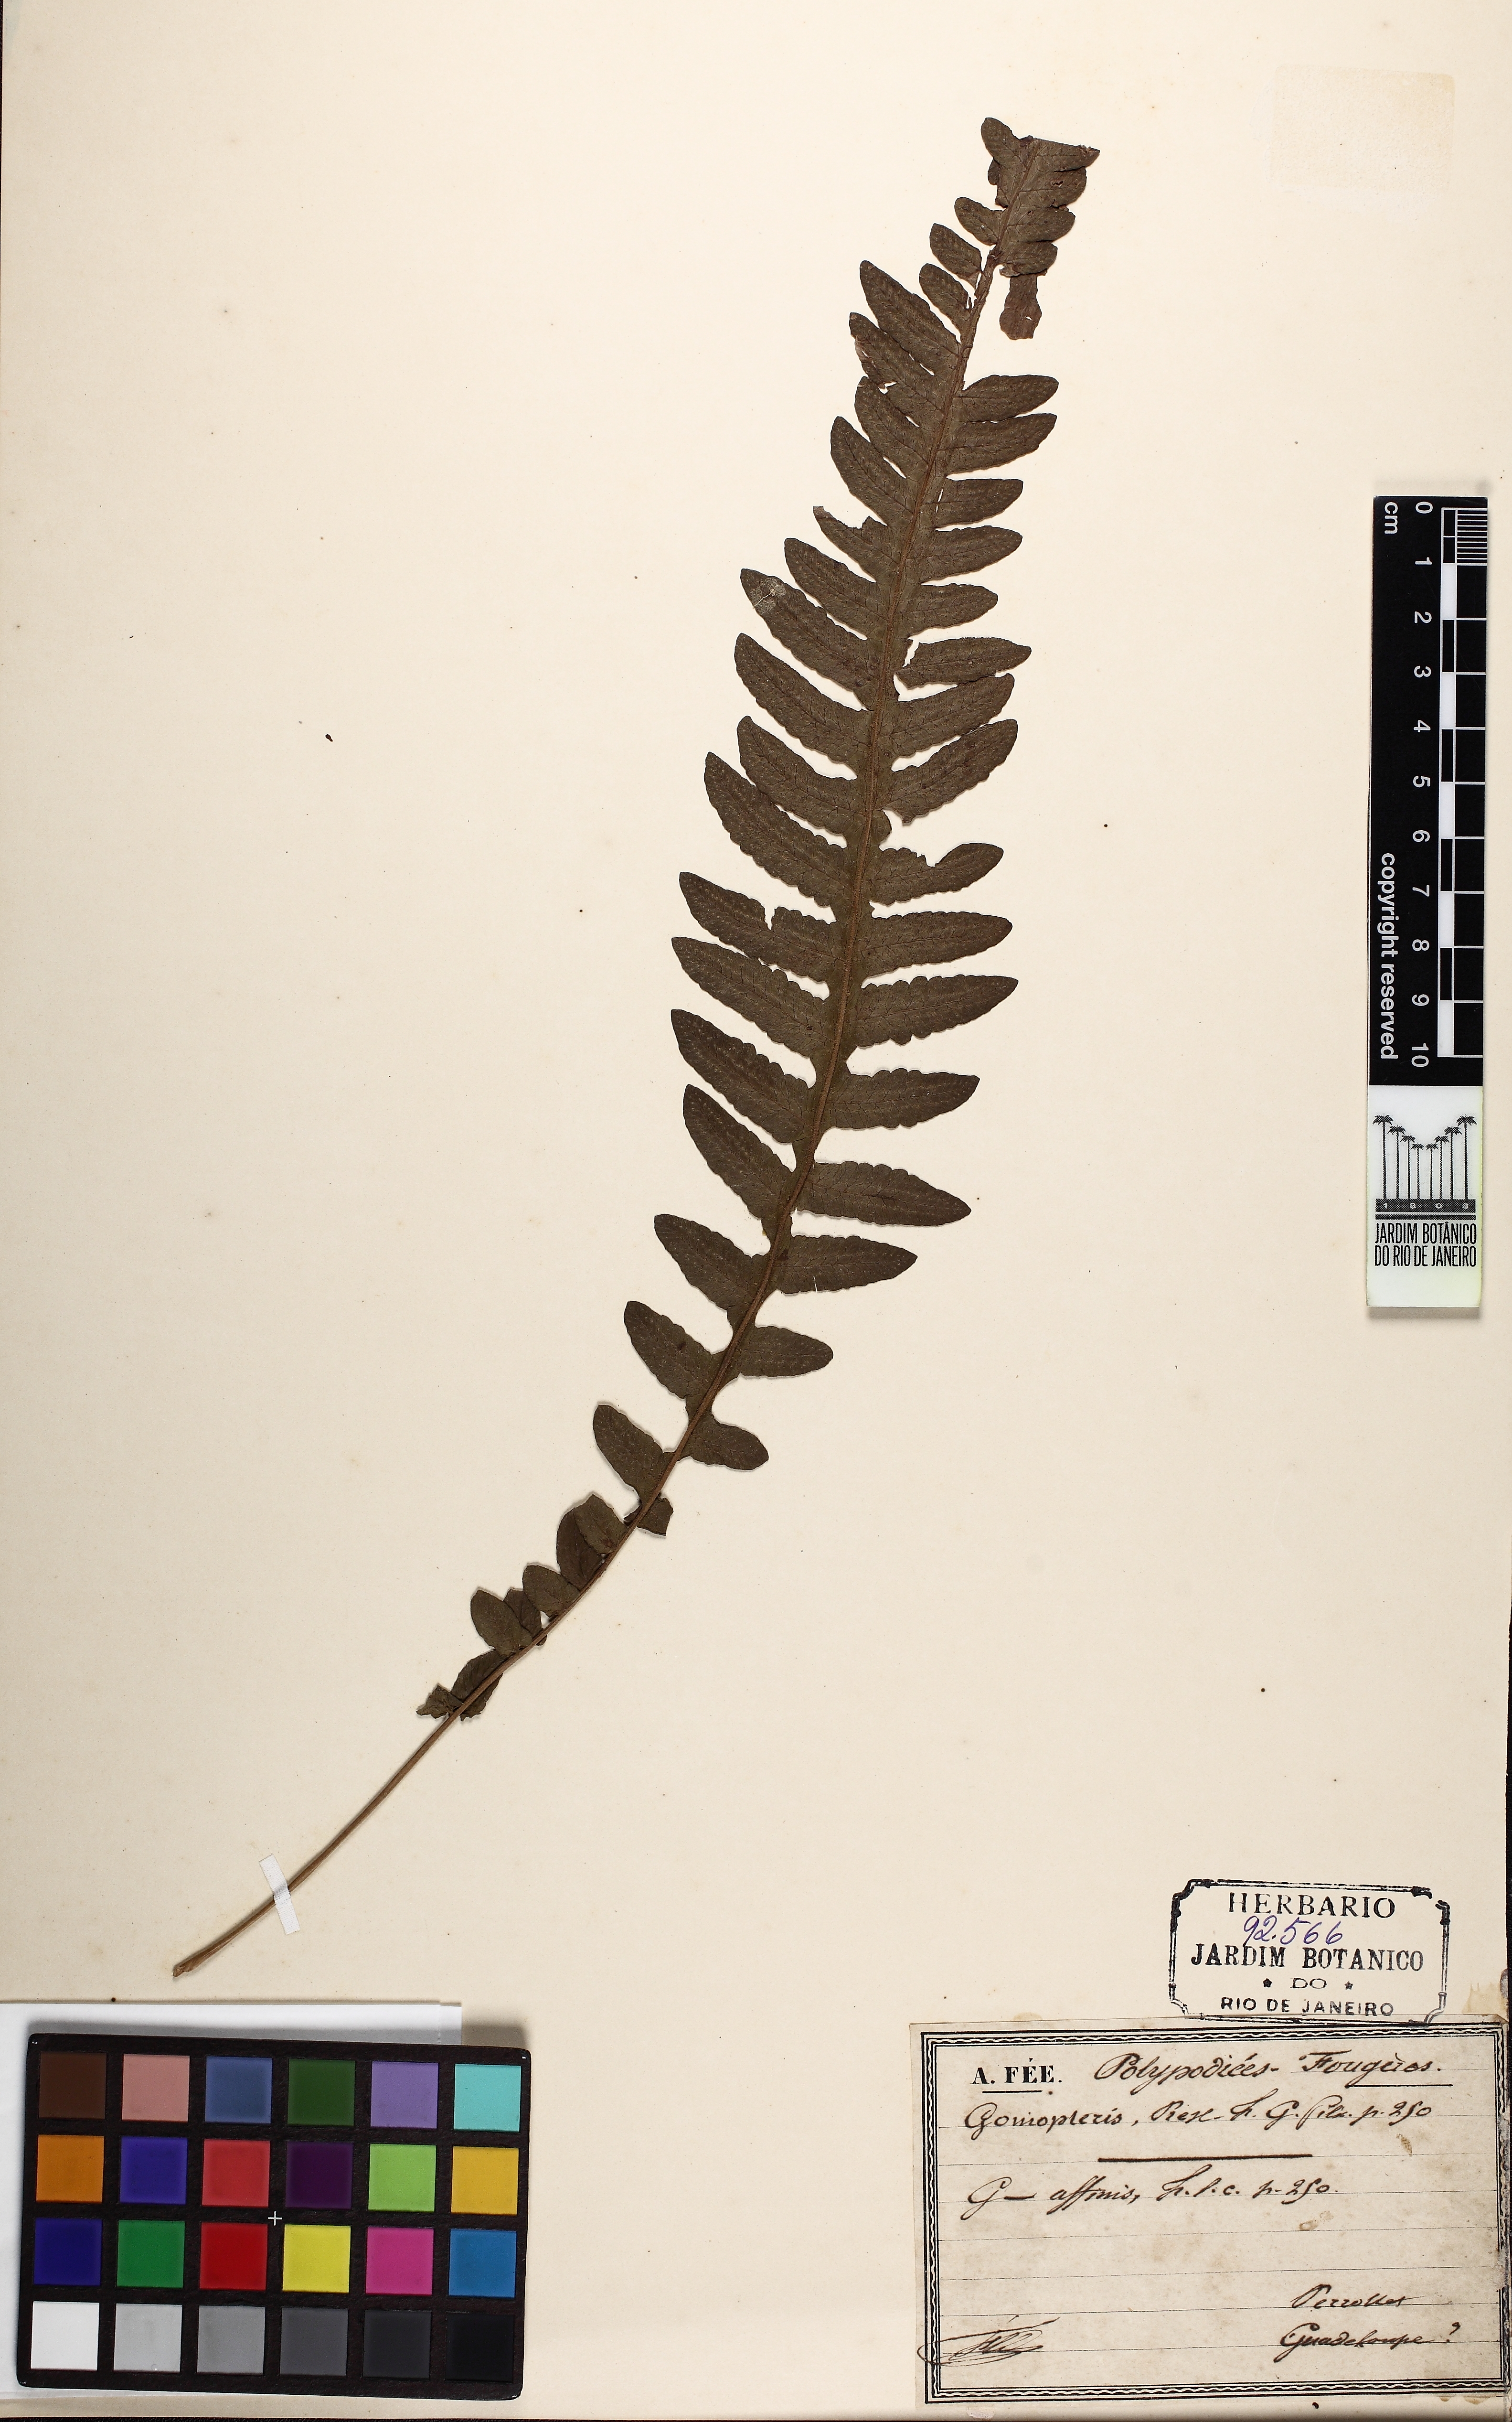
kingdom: Plantae
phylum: Tracheophyta
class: Polypodiopsida
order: Polypodiales
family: Thelypteridaceae
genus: Goniopteris
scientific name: Goniopteris domingensis
